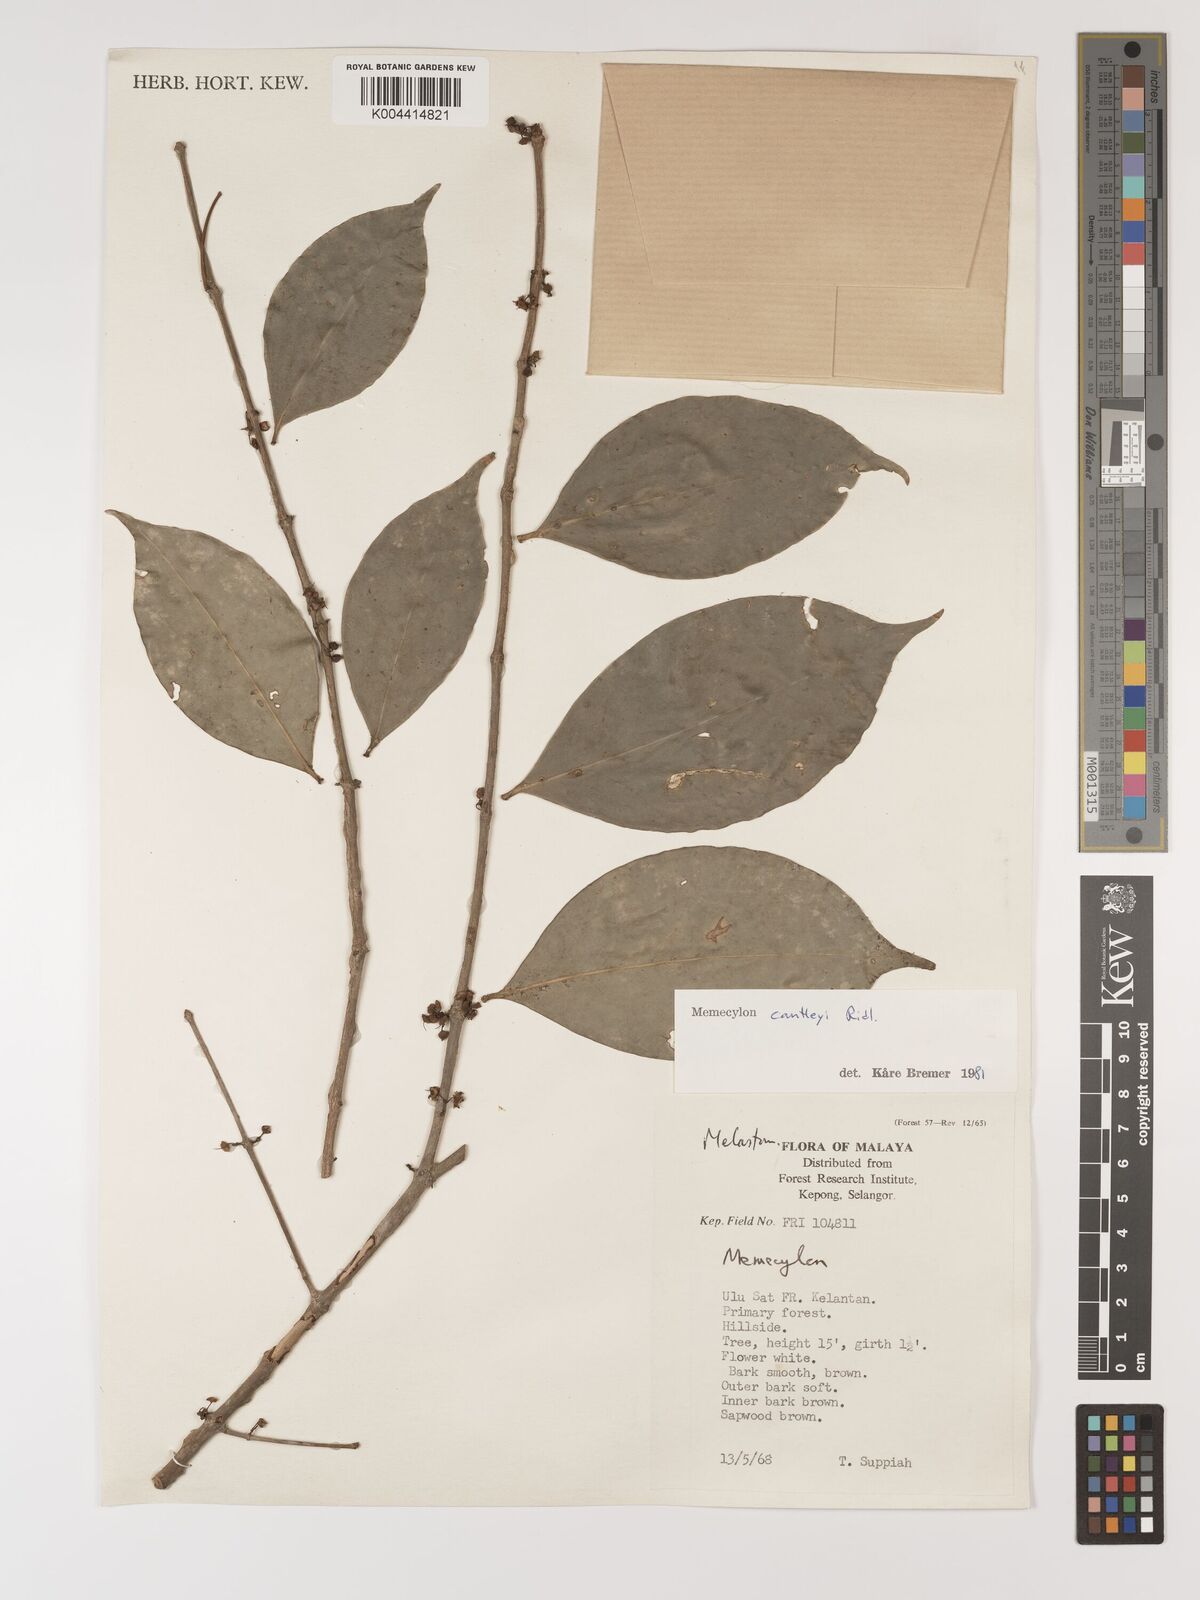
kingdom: Plantae
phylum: Tracheophyta
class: Magnoliopsida
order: Myrtales
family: Melastomataceae
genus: Memecylon
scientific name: Memecylon cantleyi
